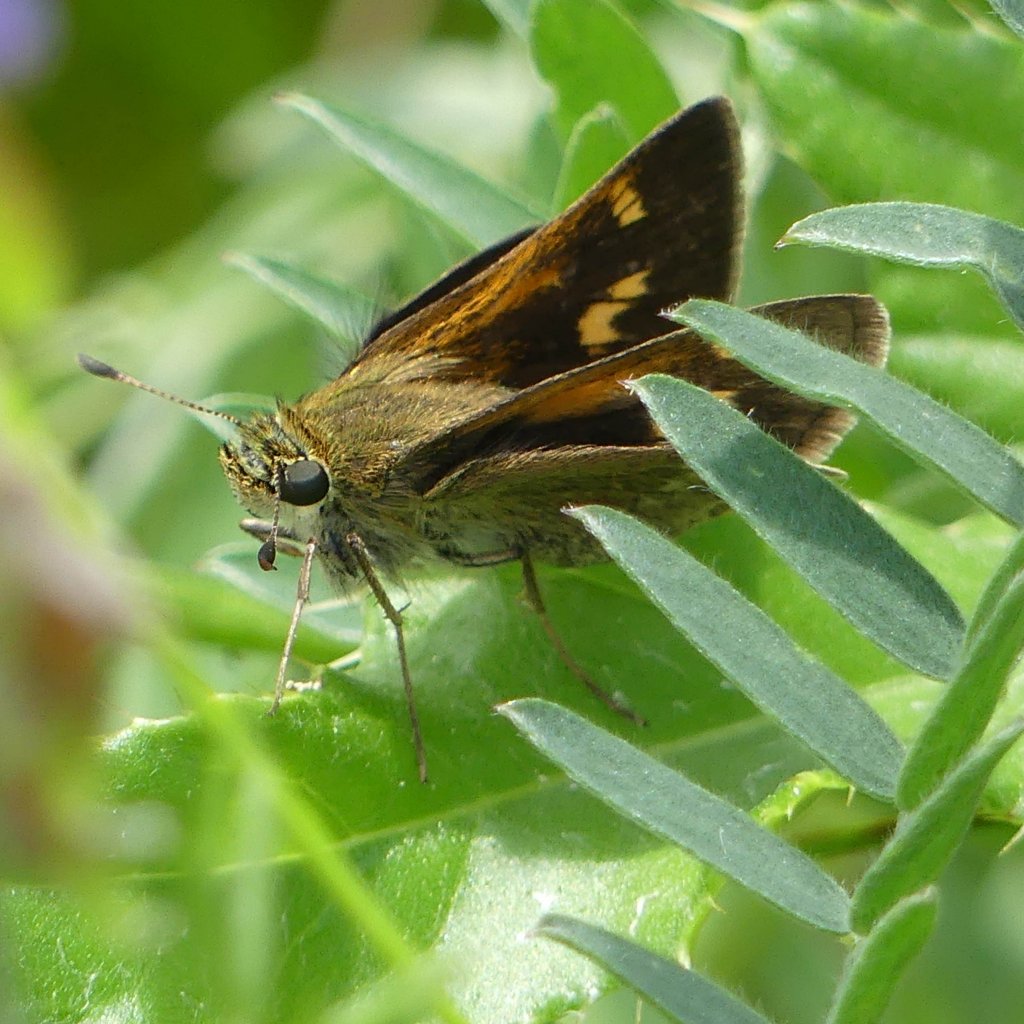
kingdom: Animalia
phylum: Arthropoda
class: Insecta
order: Lepidoptera
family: Hesperiidae
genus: Polites
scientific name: Polites
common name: Crossline Skipper
